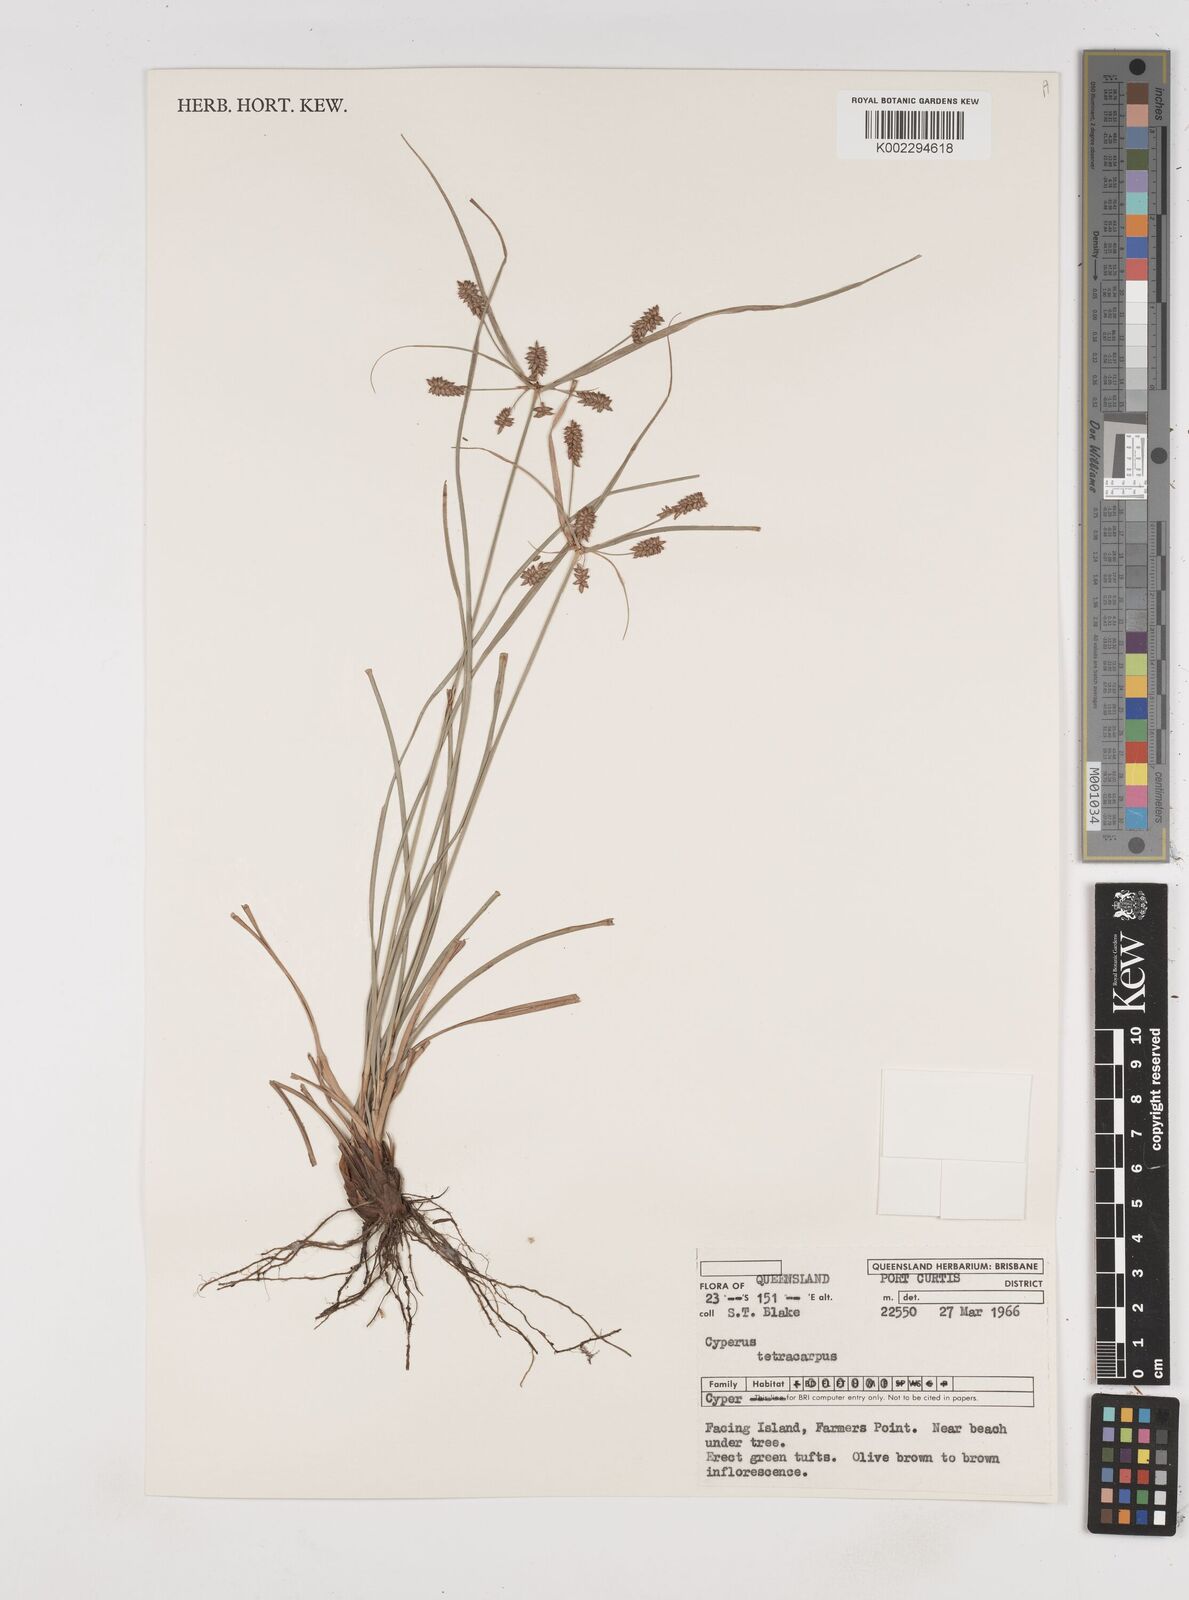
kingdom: Plantae
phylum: Tracheophyta
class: Liliopsida
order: Poales
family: Cyperaceae
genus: Cyperus
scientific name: Cyperus tetracarpus
